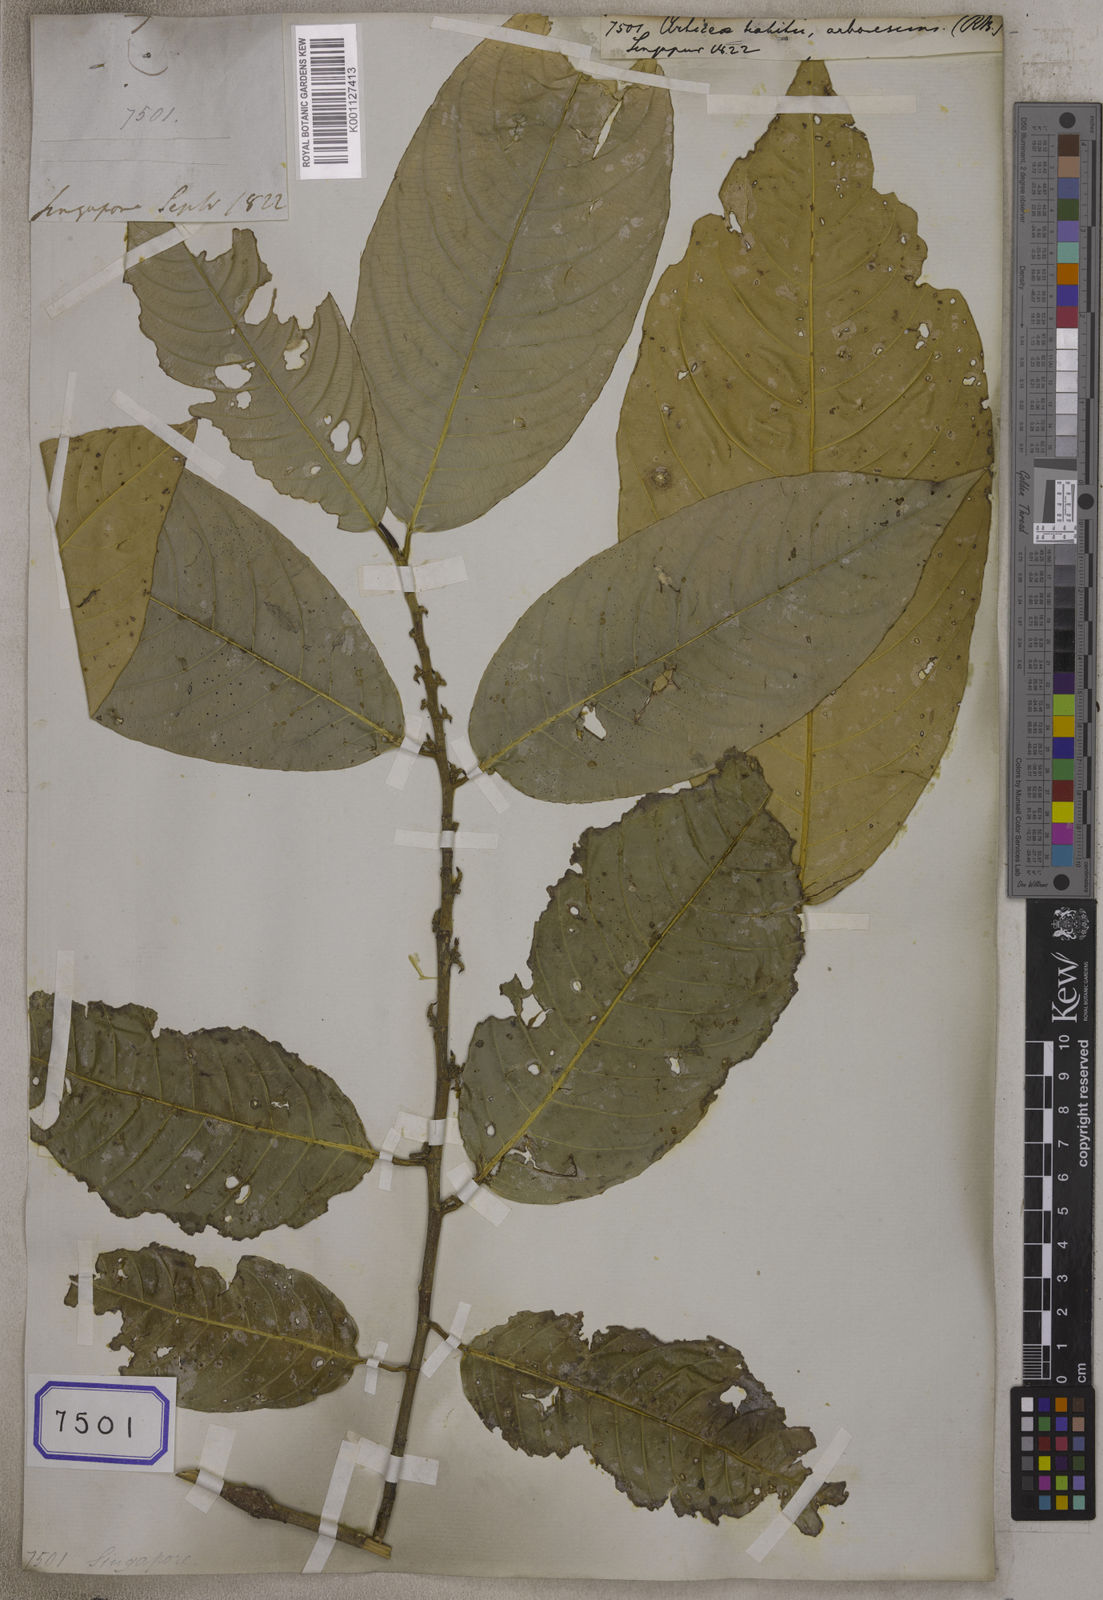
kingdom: Plantae
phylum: Tracheophyta
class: Magnoliopsida
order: Rosales
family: Urticaceae
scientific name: Urticaceae
